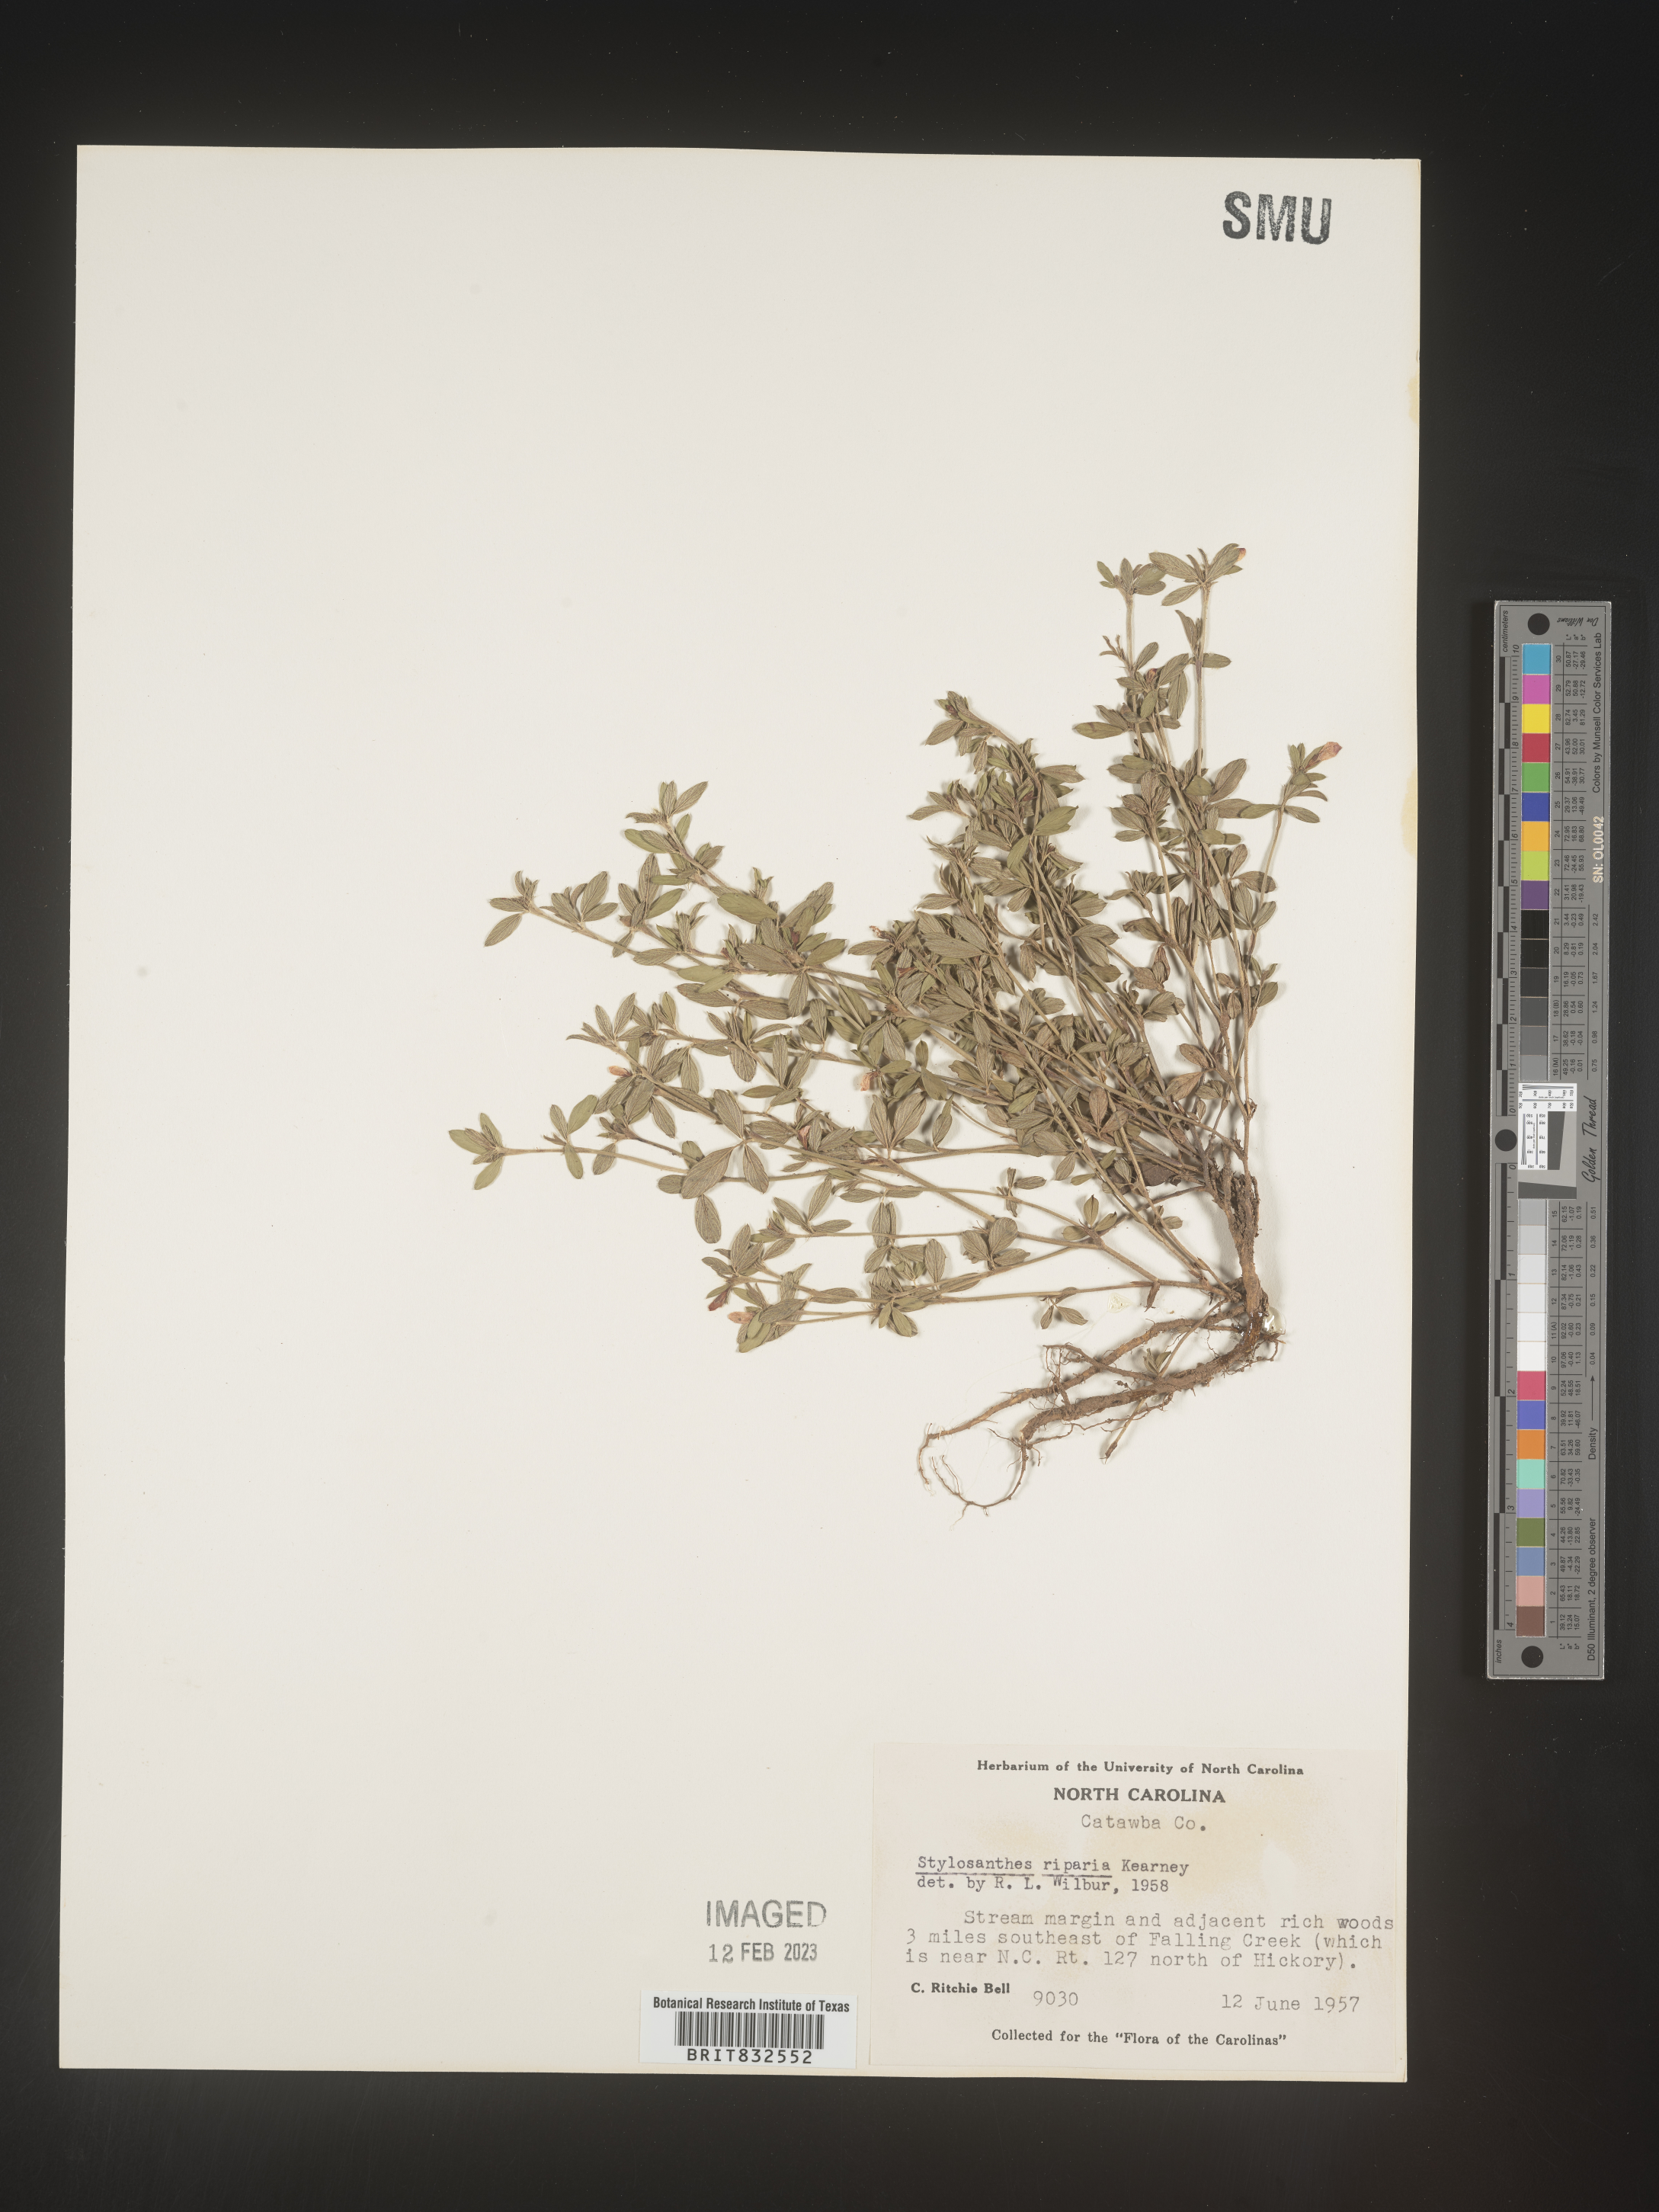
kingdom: Plantae
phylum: Tracheophyta
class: Magnoliopsida
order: Fabales
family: Fabaceae
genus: Stylosanthes
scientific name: Stylosanthes
